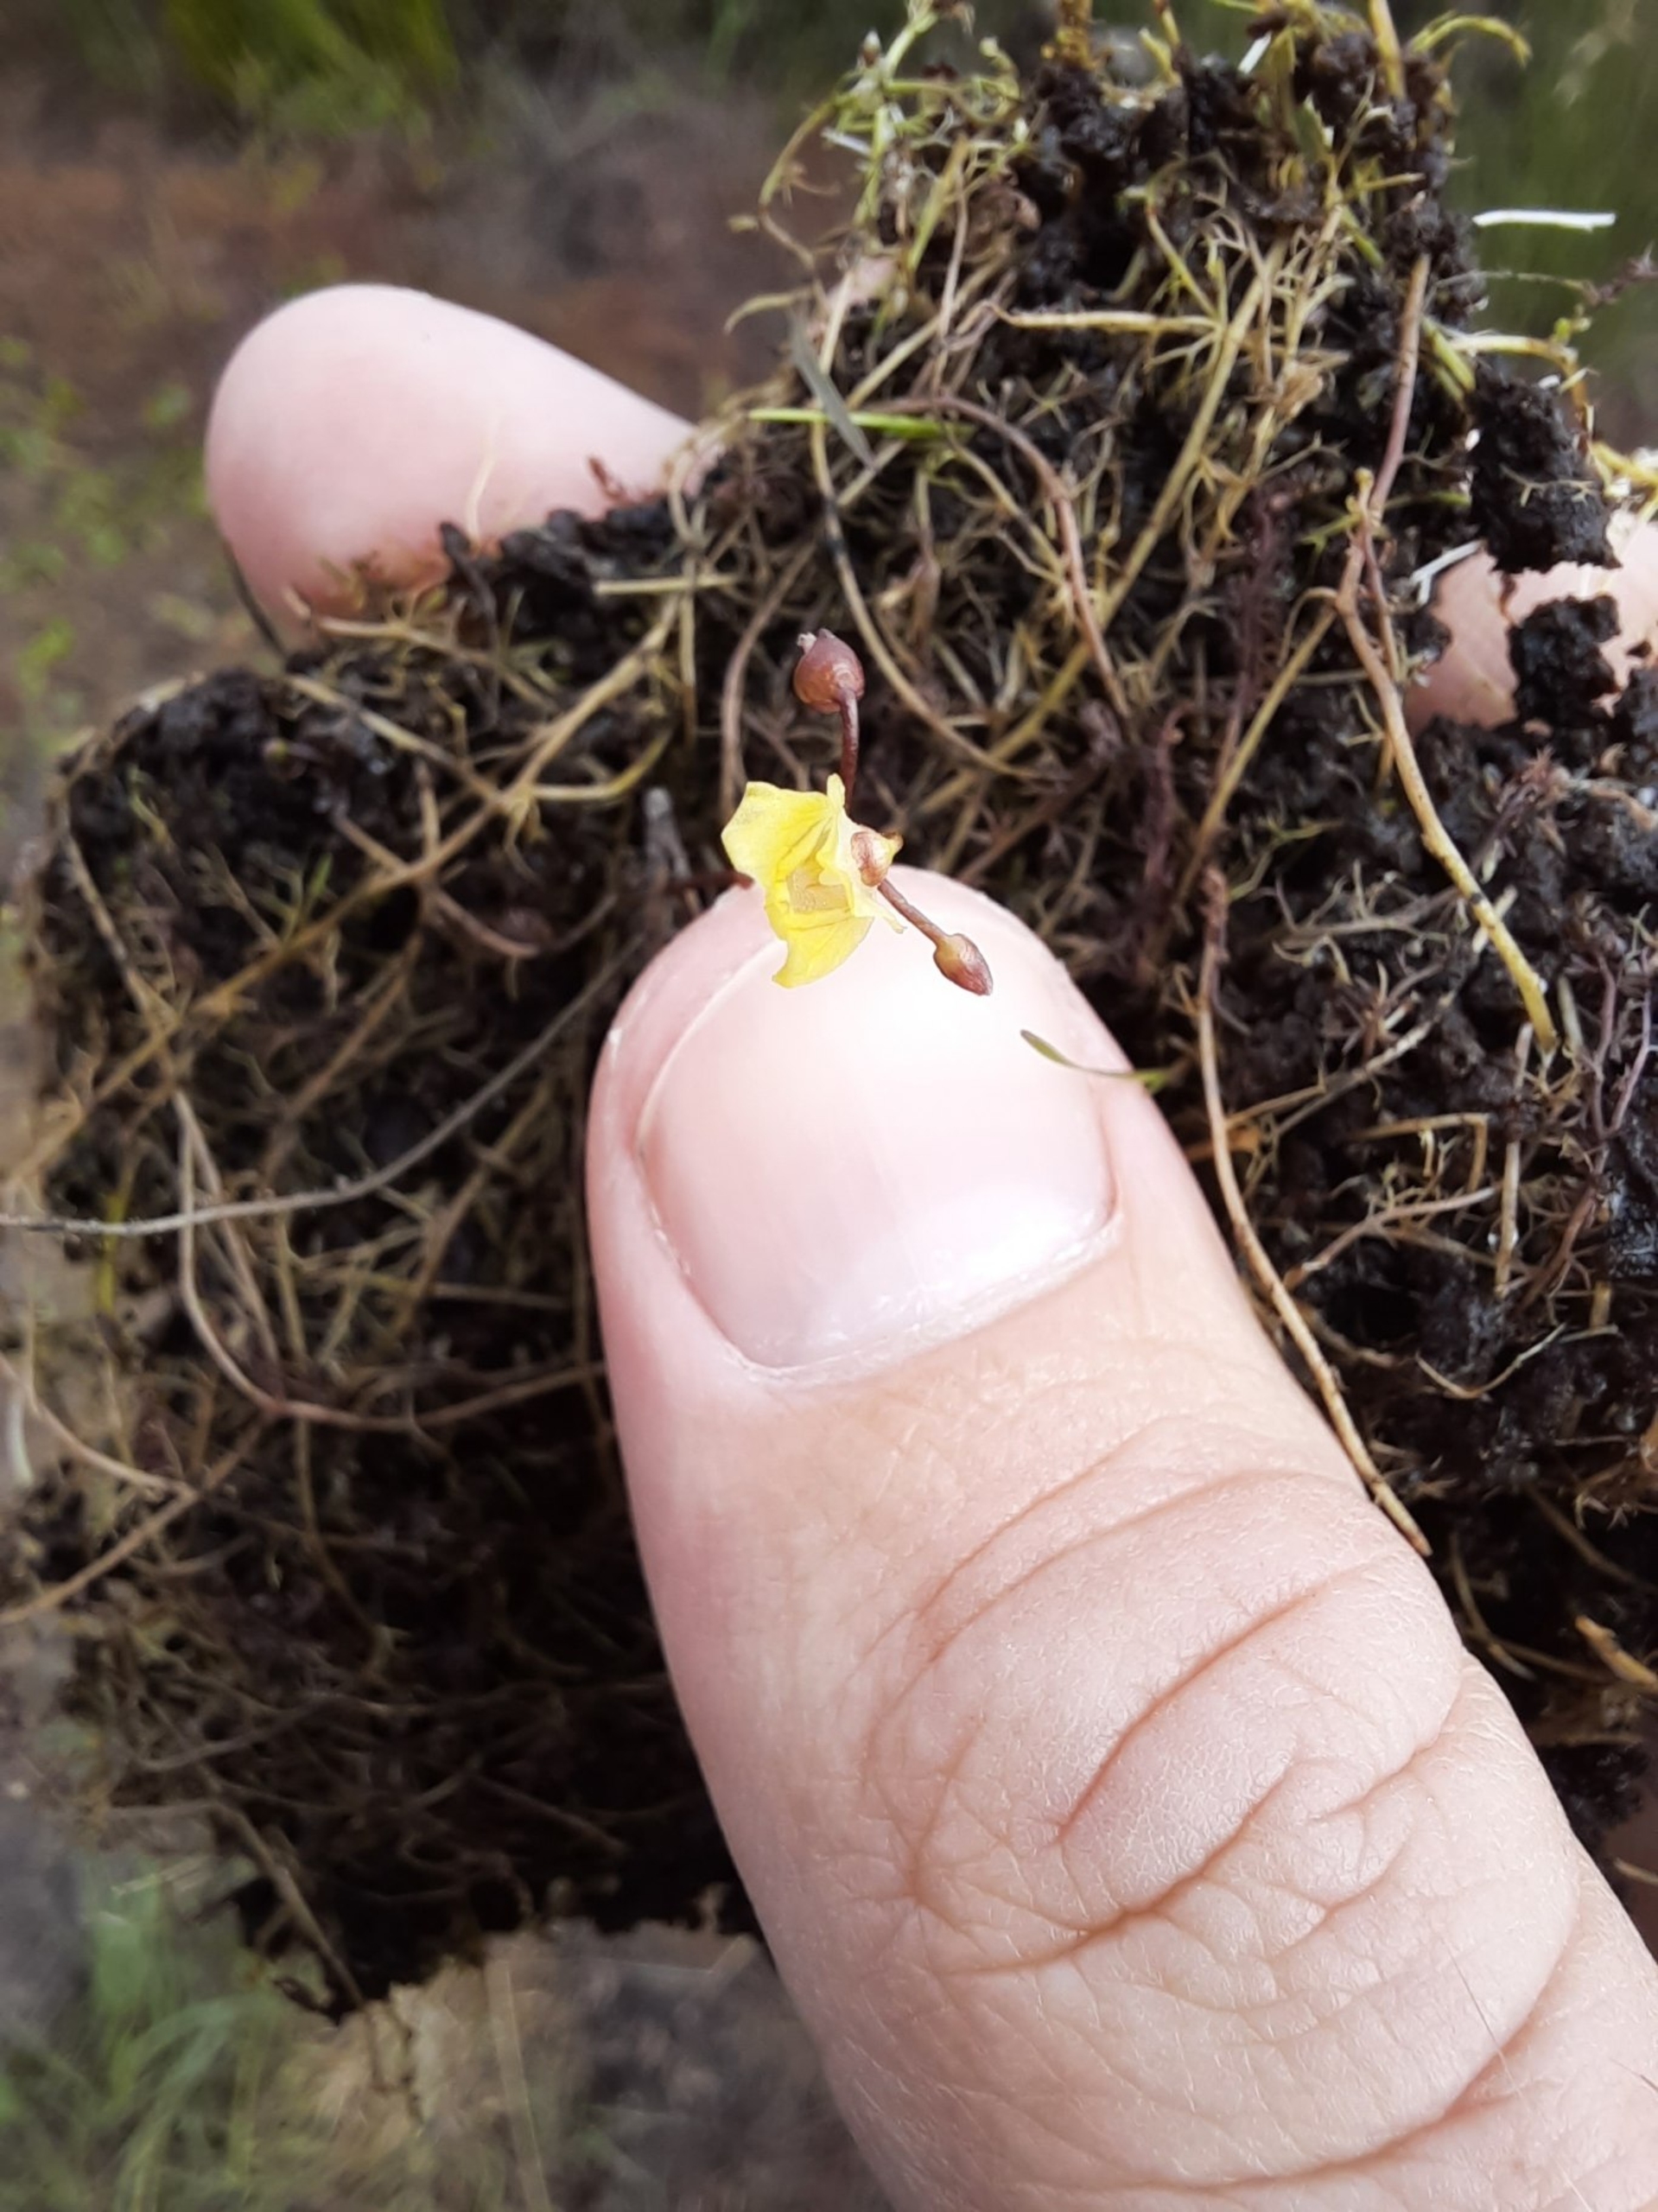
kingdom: Plantae
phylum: Tracheophyta
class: Magnoliopsida
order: Lamiales
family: Lentibulariaceae
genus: Utricularia
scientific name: Utricularia minor
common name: Liden blærerod
